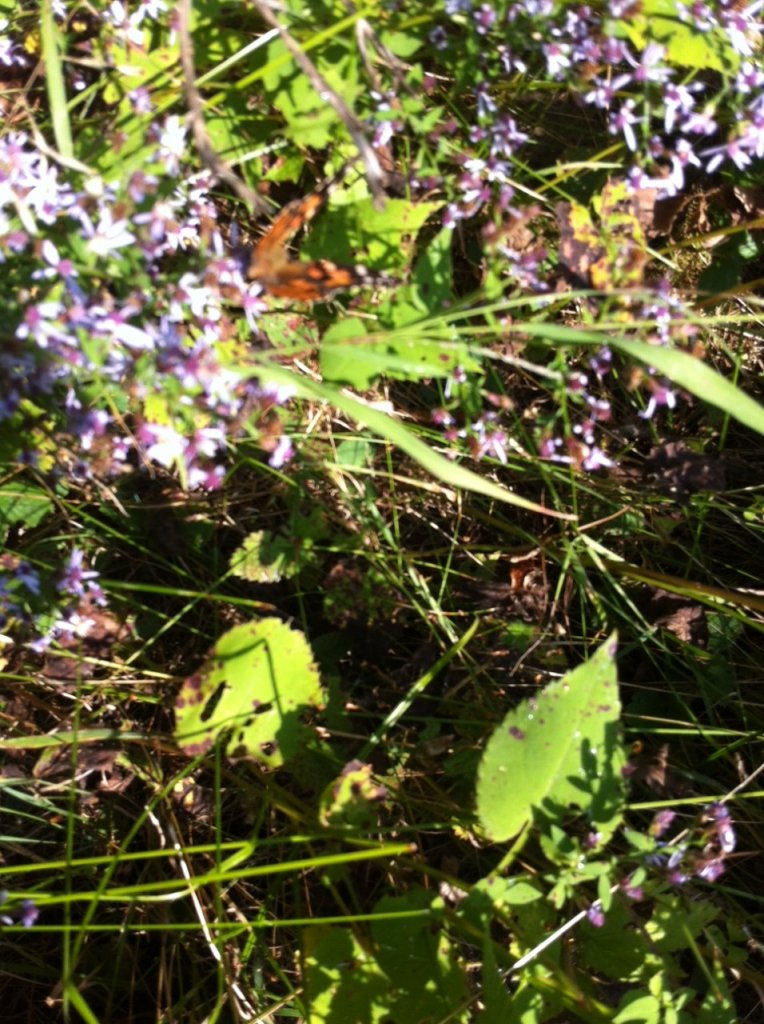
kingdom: Animalia
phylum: Arthropoda
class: Insecta
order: Lepidoptera
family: Nymphalidae
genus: Vanessa
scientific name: Vanessa cardui
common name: Painted Lady
